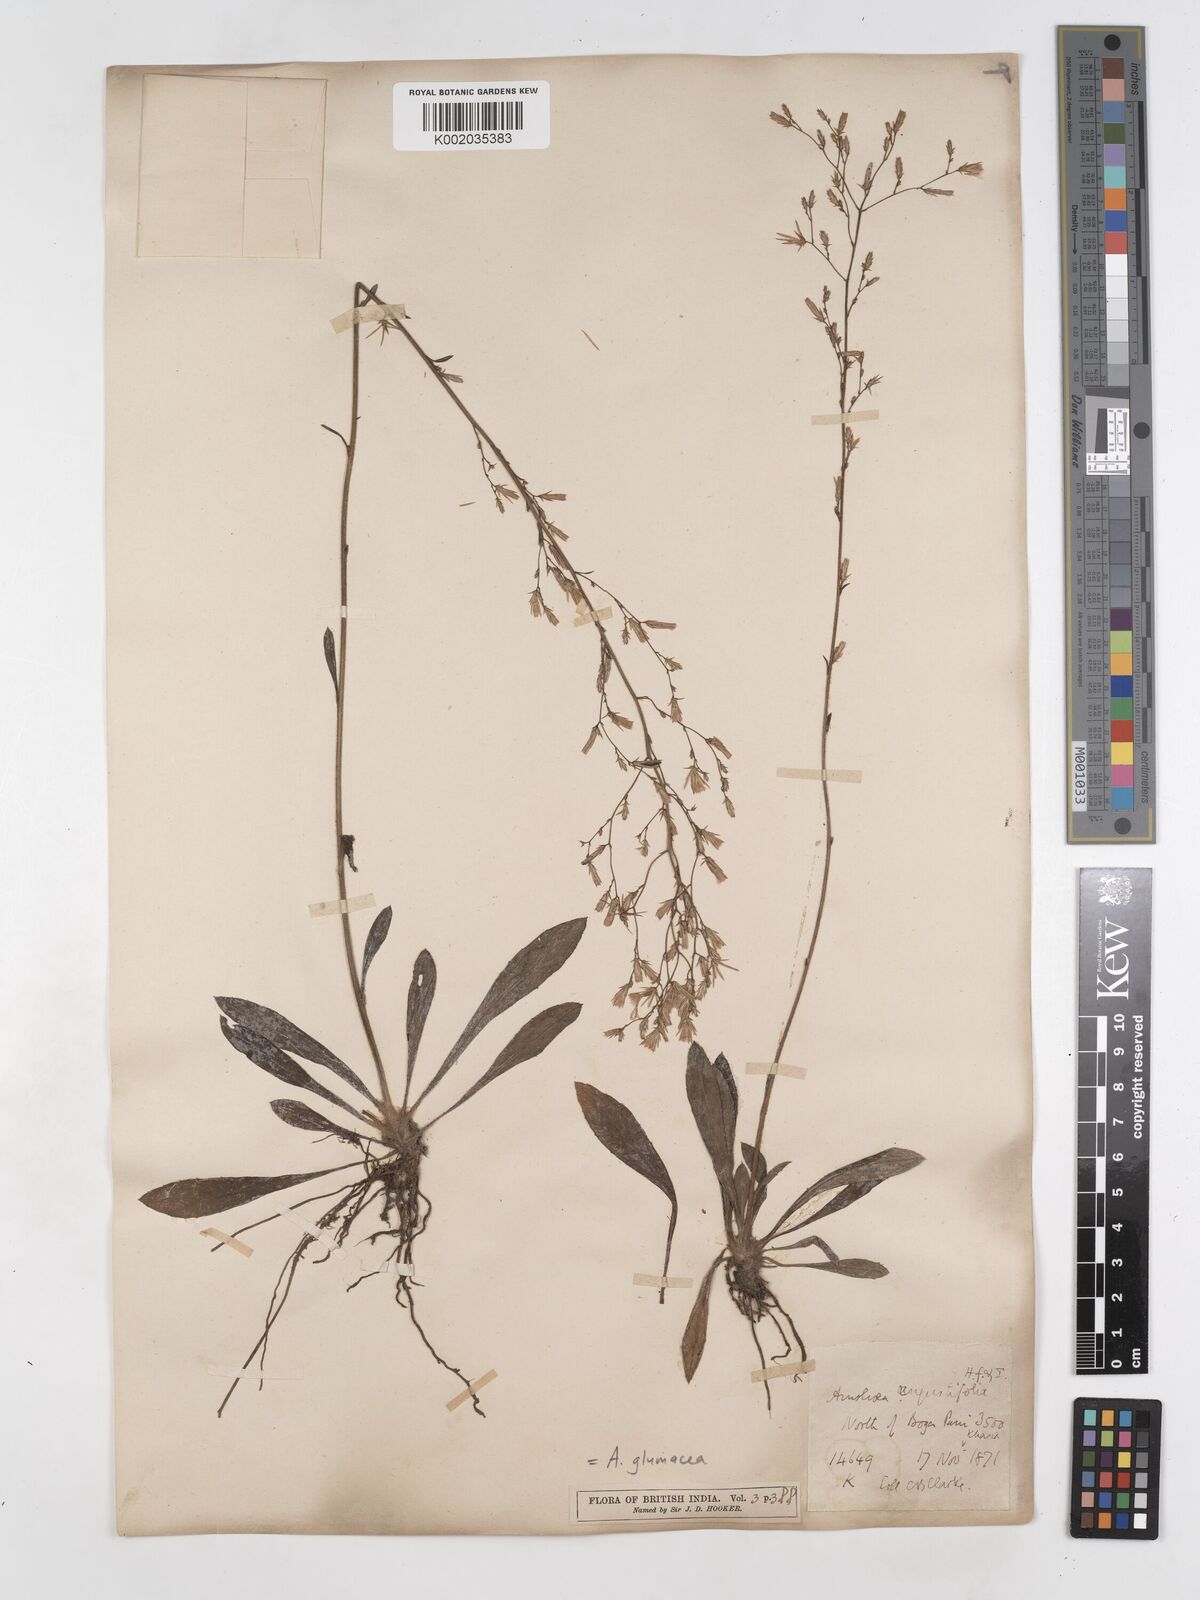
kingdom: Plantae
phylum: Tracheophyta
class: Magnoliopsida
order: Asterales
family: Asteraceae
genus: Ainsliaea
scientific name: Ainsliaea angustifolia
